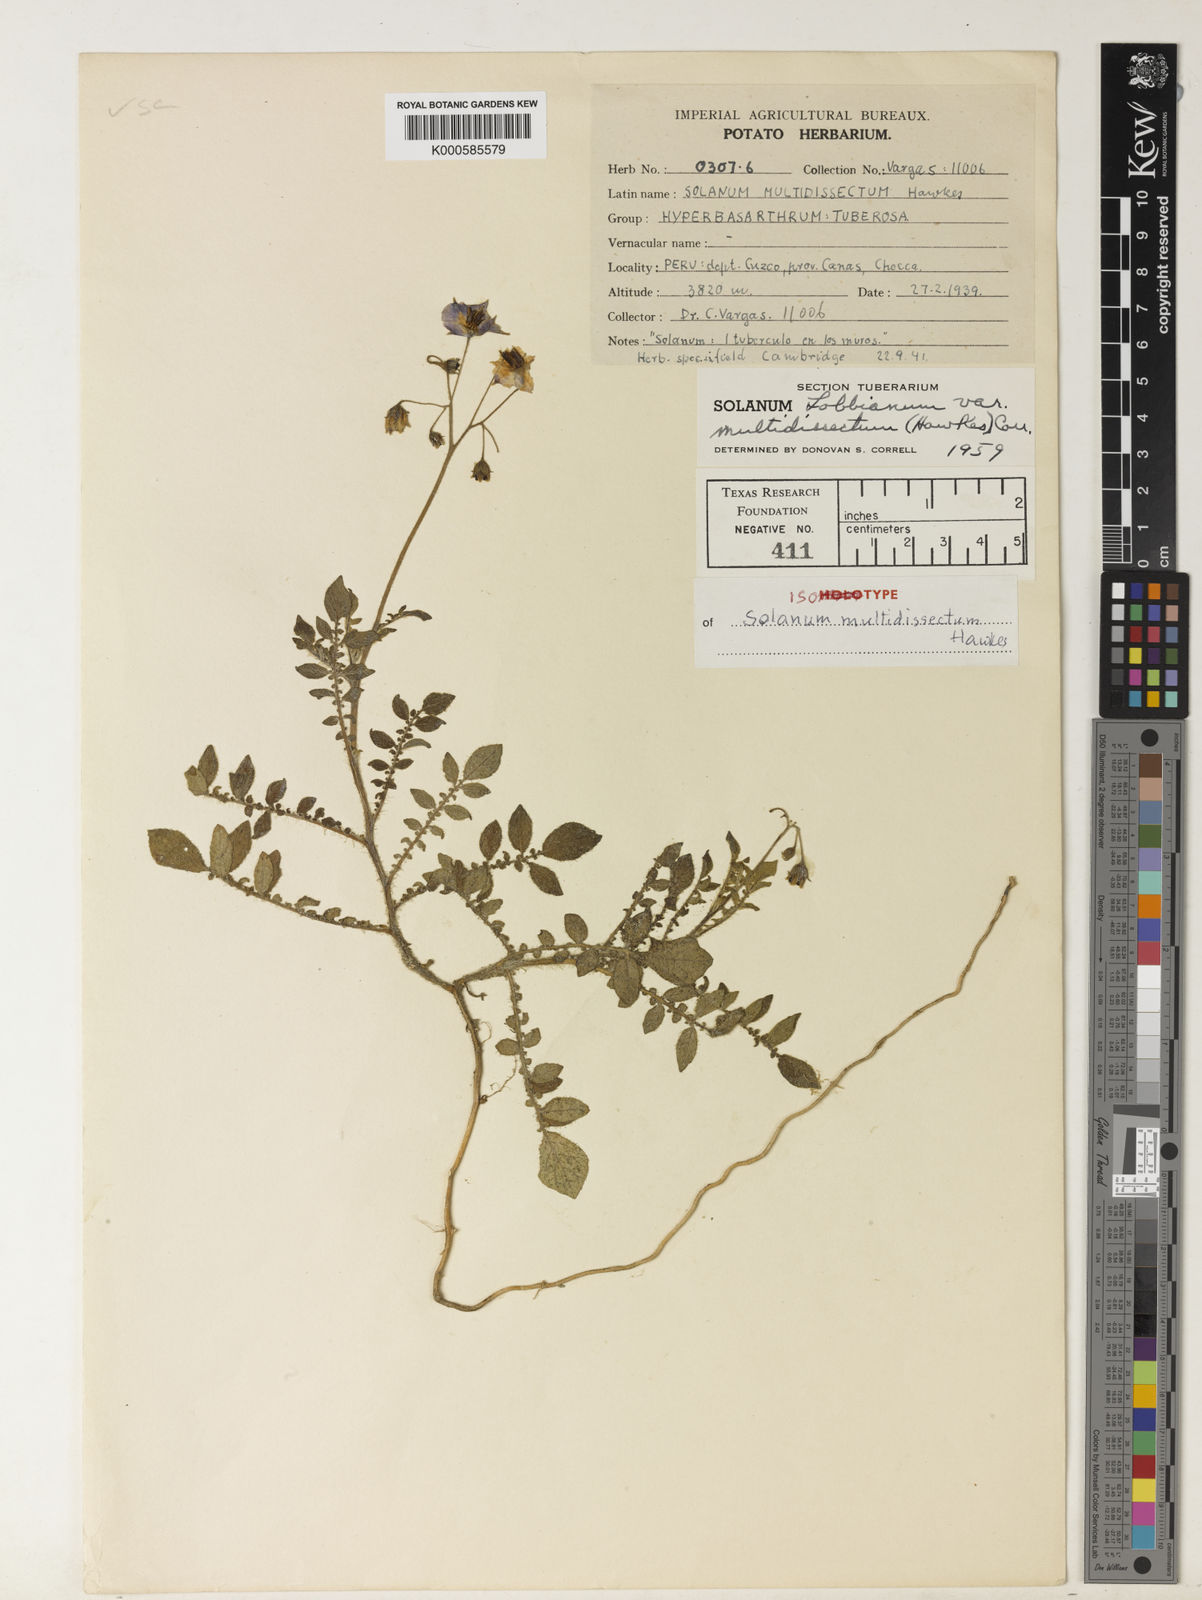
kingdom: Plantae
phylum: Tracheophyta
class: Magnoliopsida
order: Solanales
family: Solanaceae
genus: Solanum
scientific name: Solanum candolleanum
